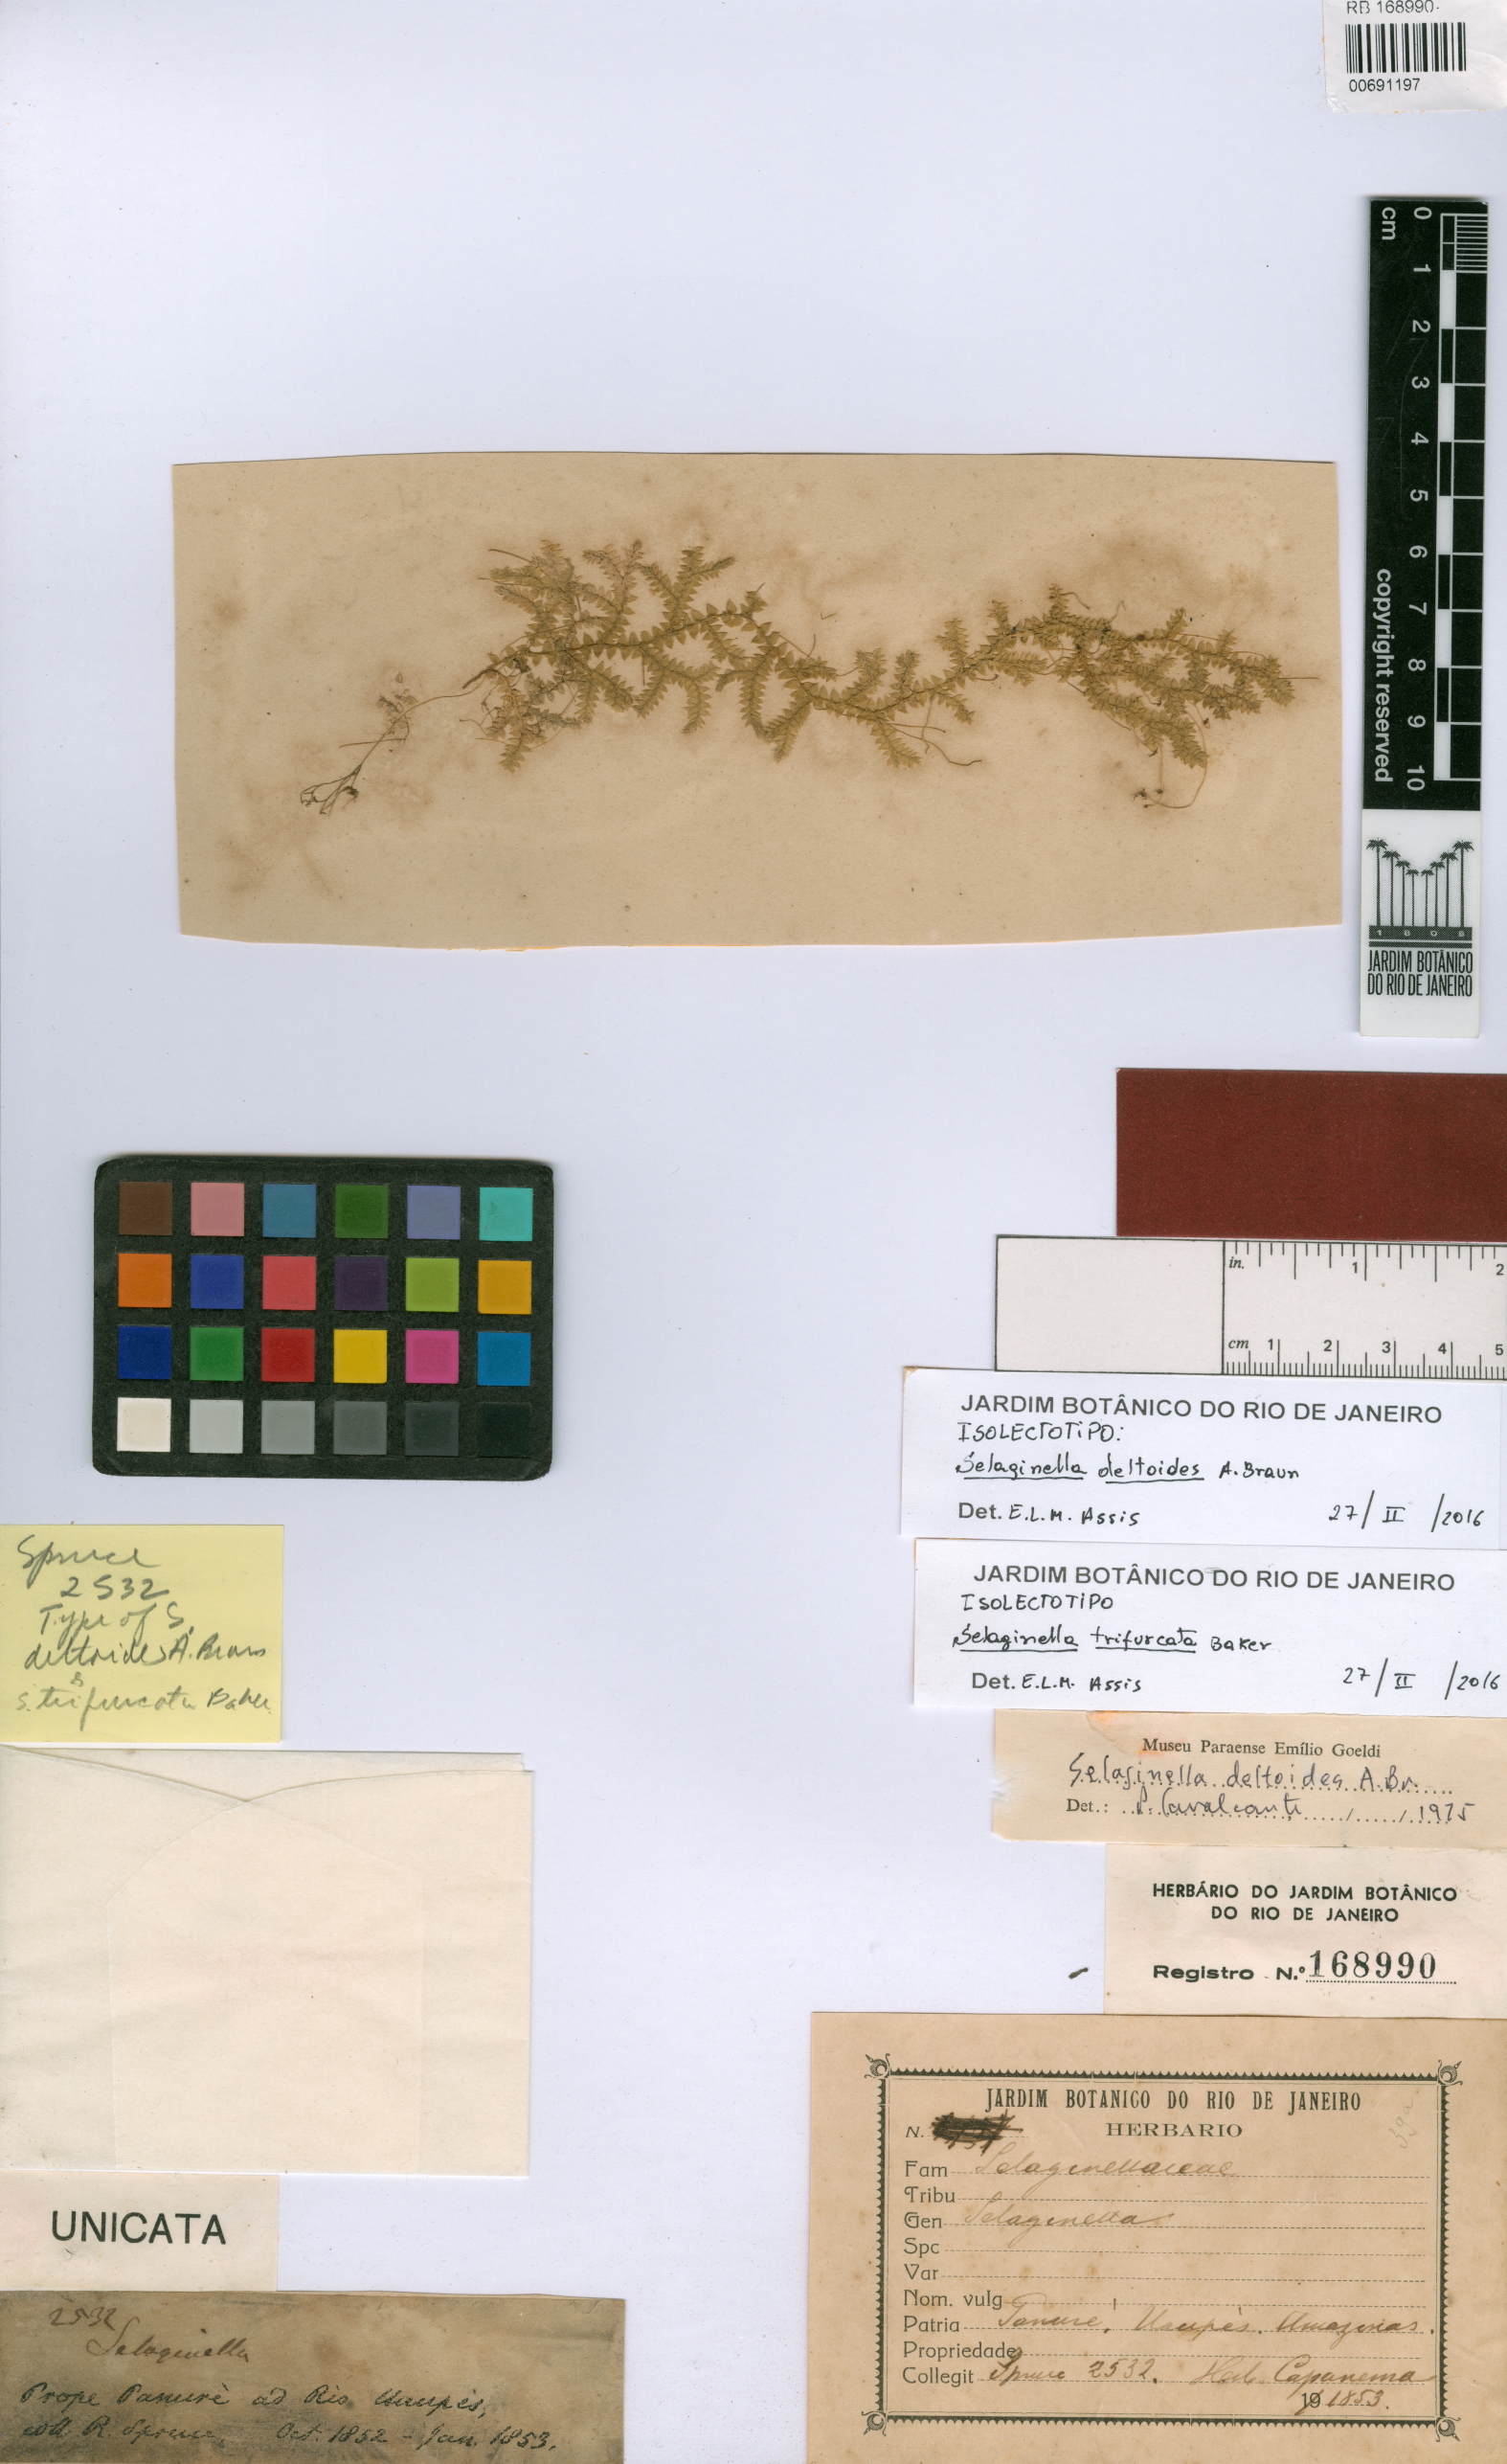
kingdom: Plantae
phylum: Tracheophyta
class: Lycopodiopsida
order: Selaginellales
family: Selaginellaceae
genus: Selaginella
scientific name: Selaginella muscosa
